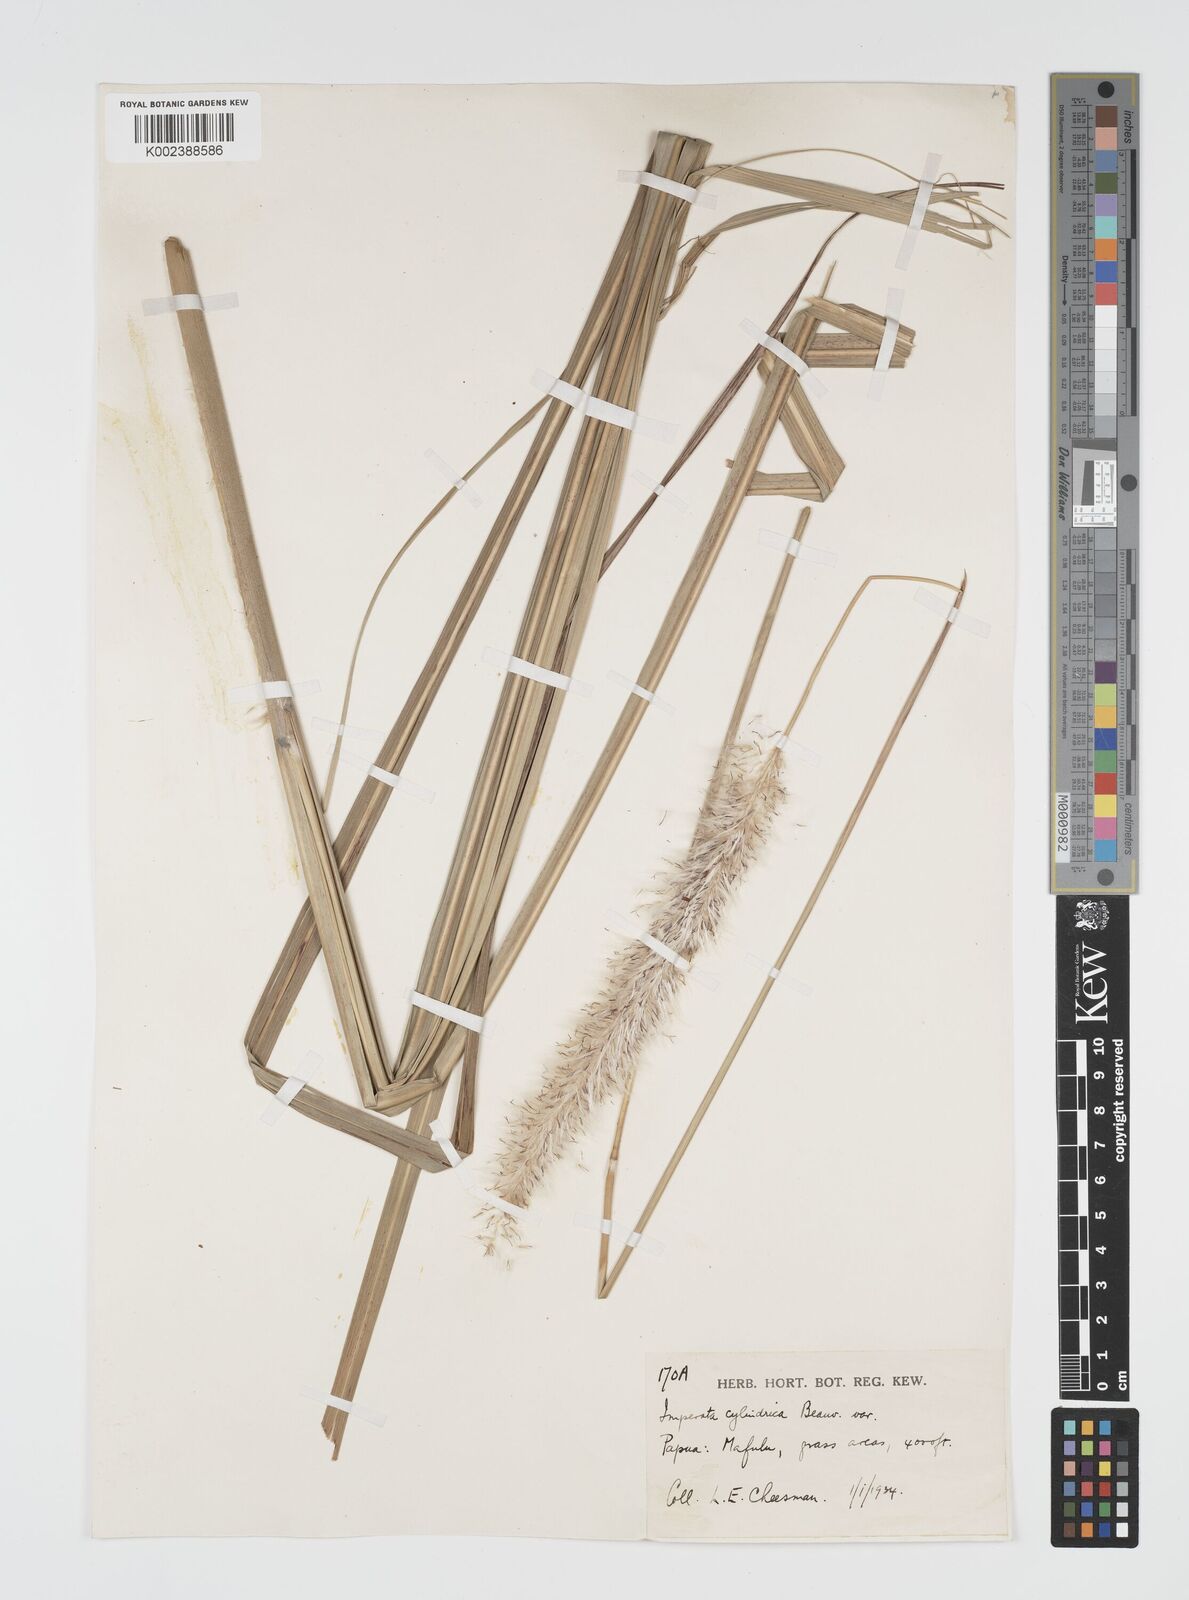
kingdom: Plantae
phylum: Tracheophyta
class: Liliopsida
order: Poales
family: Poaceae
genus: Imperata
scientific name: Imperata cylindrica
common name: Cogongrass
